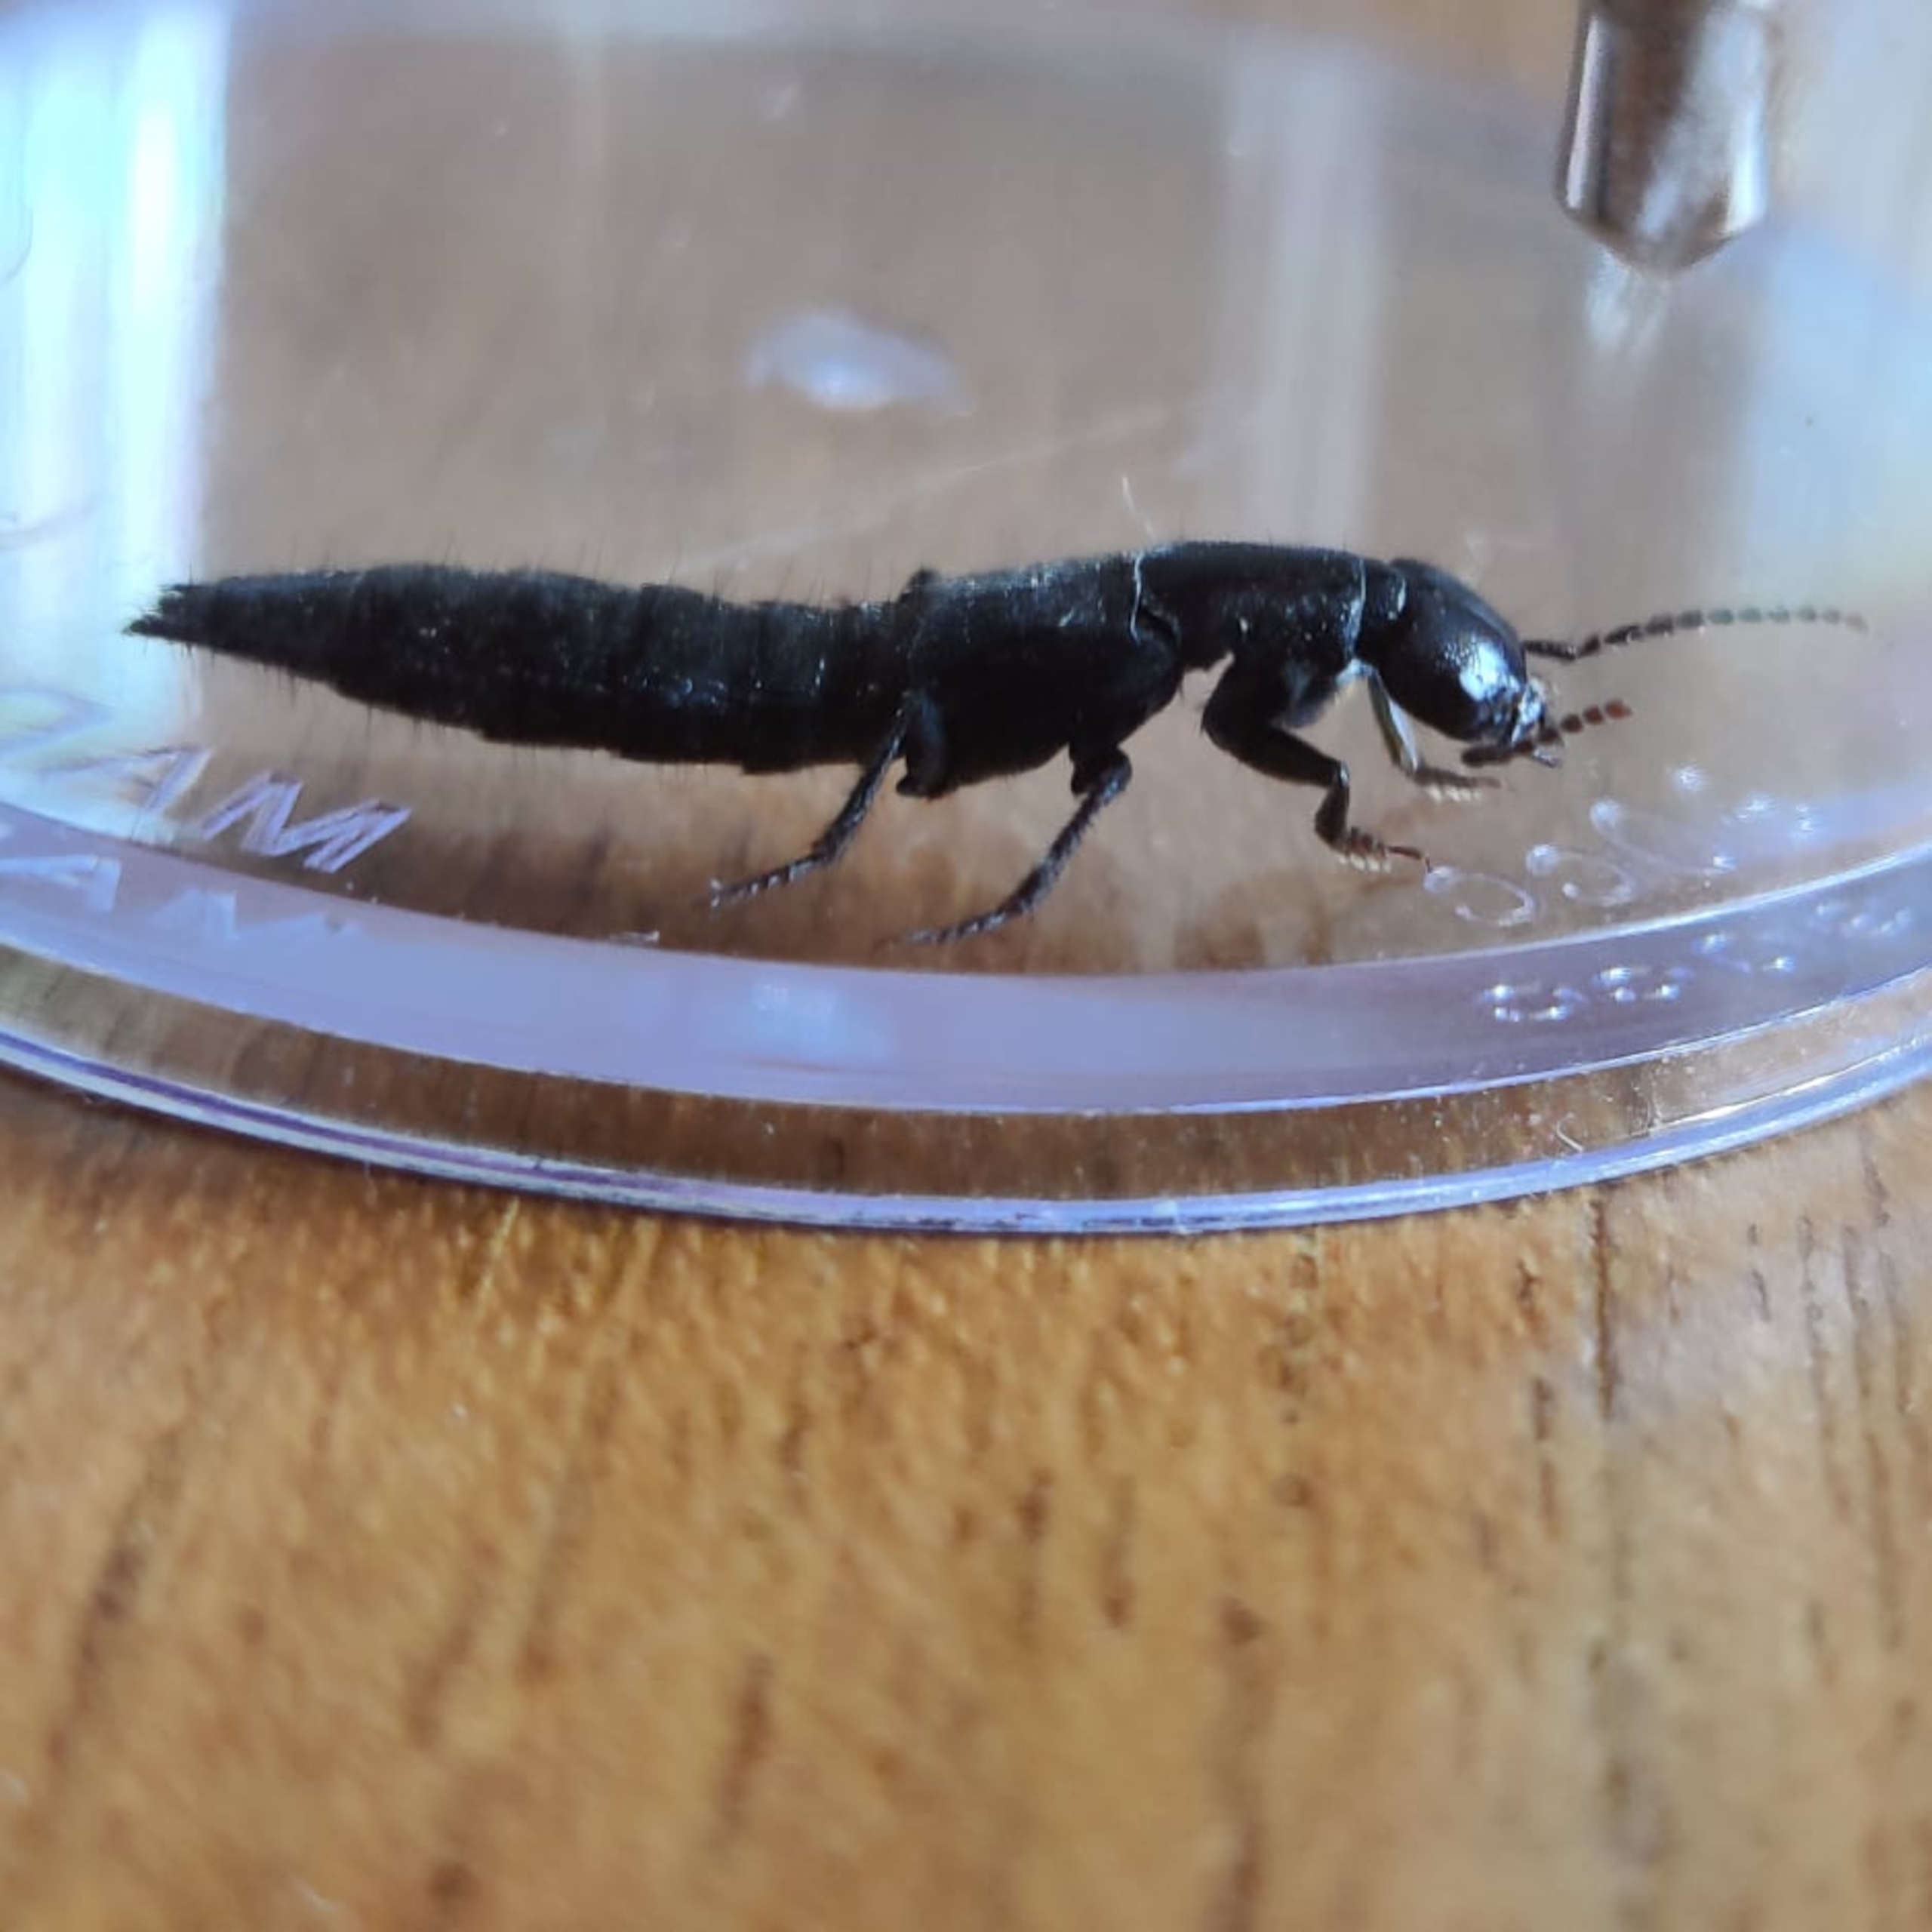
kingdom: Animalia
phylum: Arthropoda
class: Insecta
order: Coleoptera
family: Staphylinidae
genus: Ocypus
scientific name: Ocypus olens
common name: Stor rovbille
